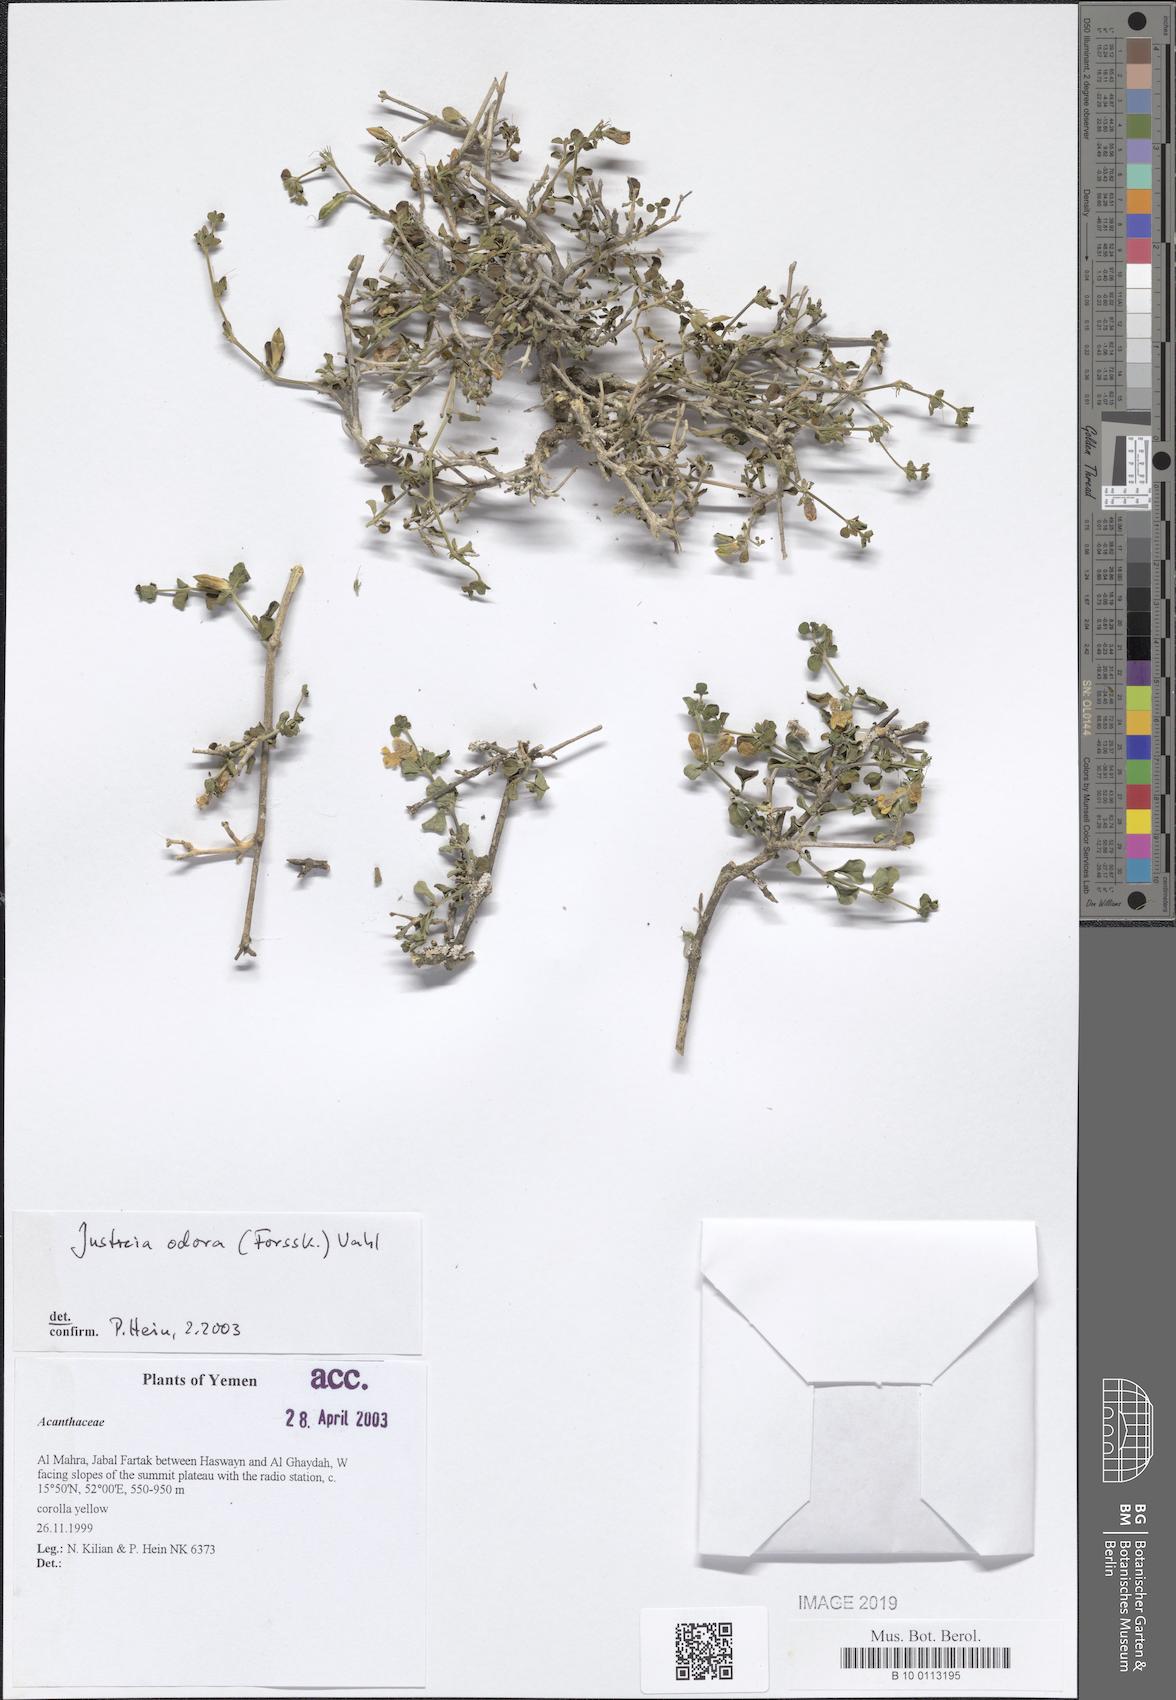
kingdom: Plantae
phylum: Tracheophyta
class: Magnoliopsida
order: Lamiales
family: Acanthaceae
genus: Justicia
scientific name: Justicia odora
